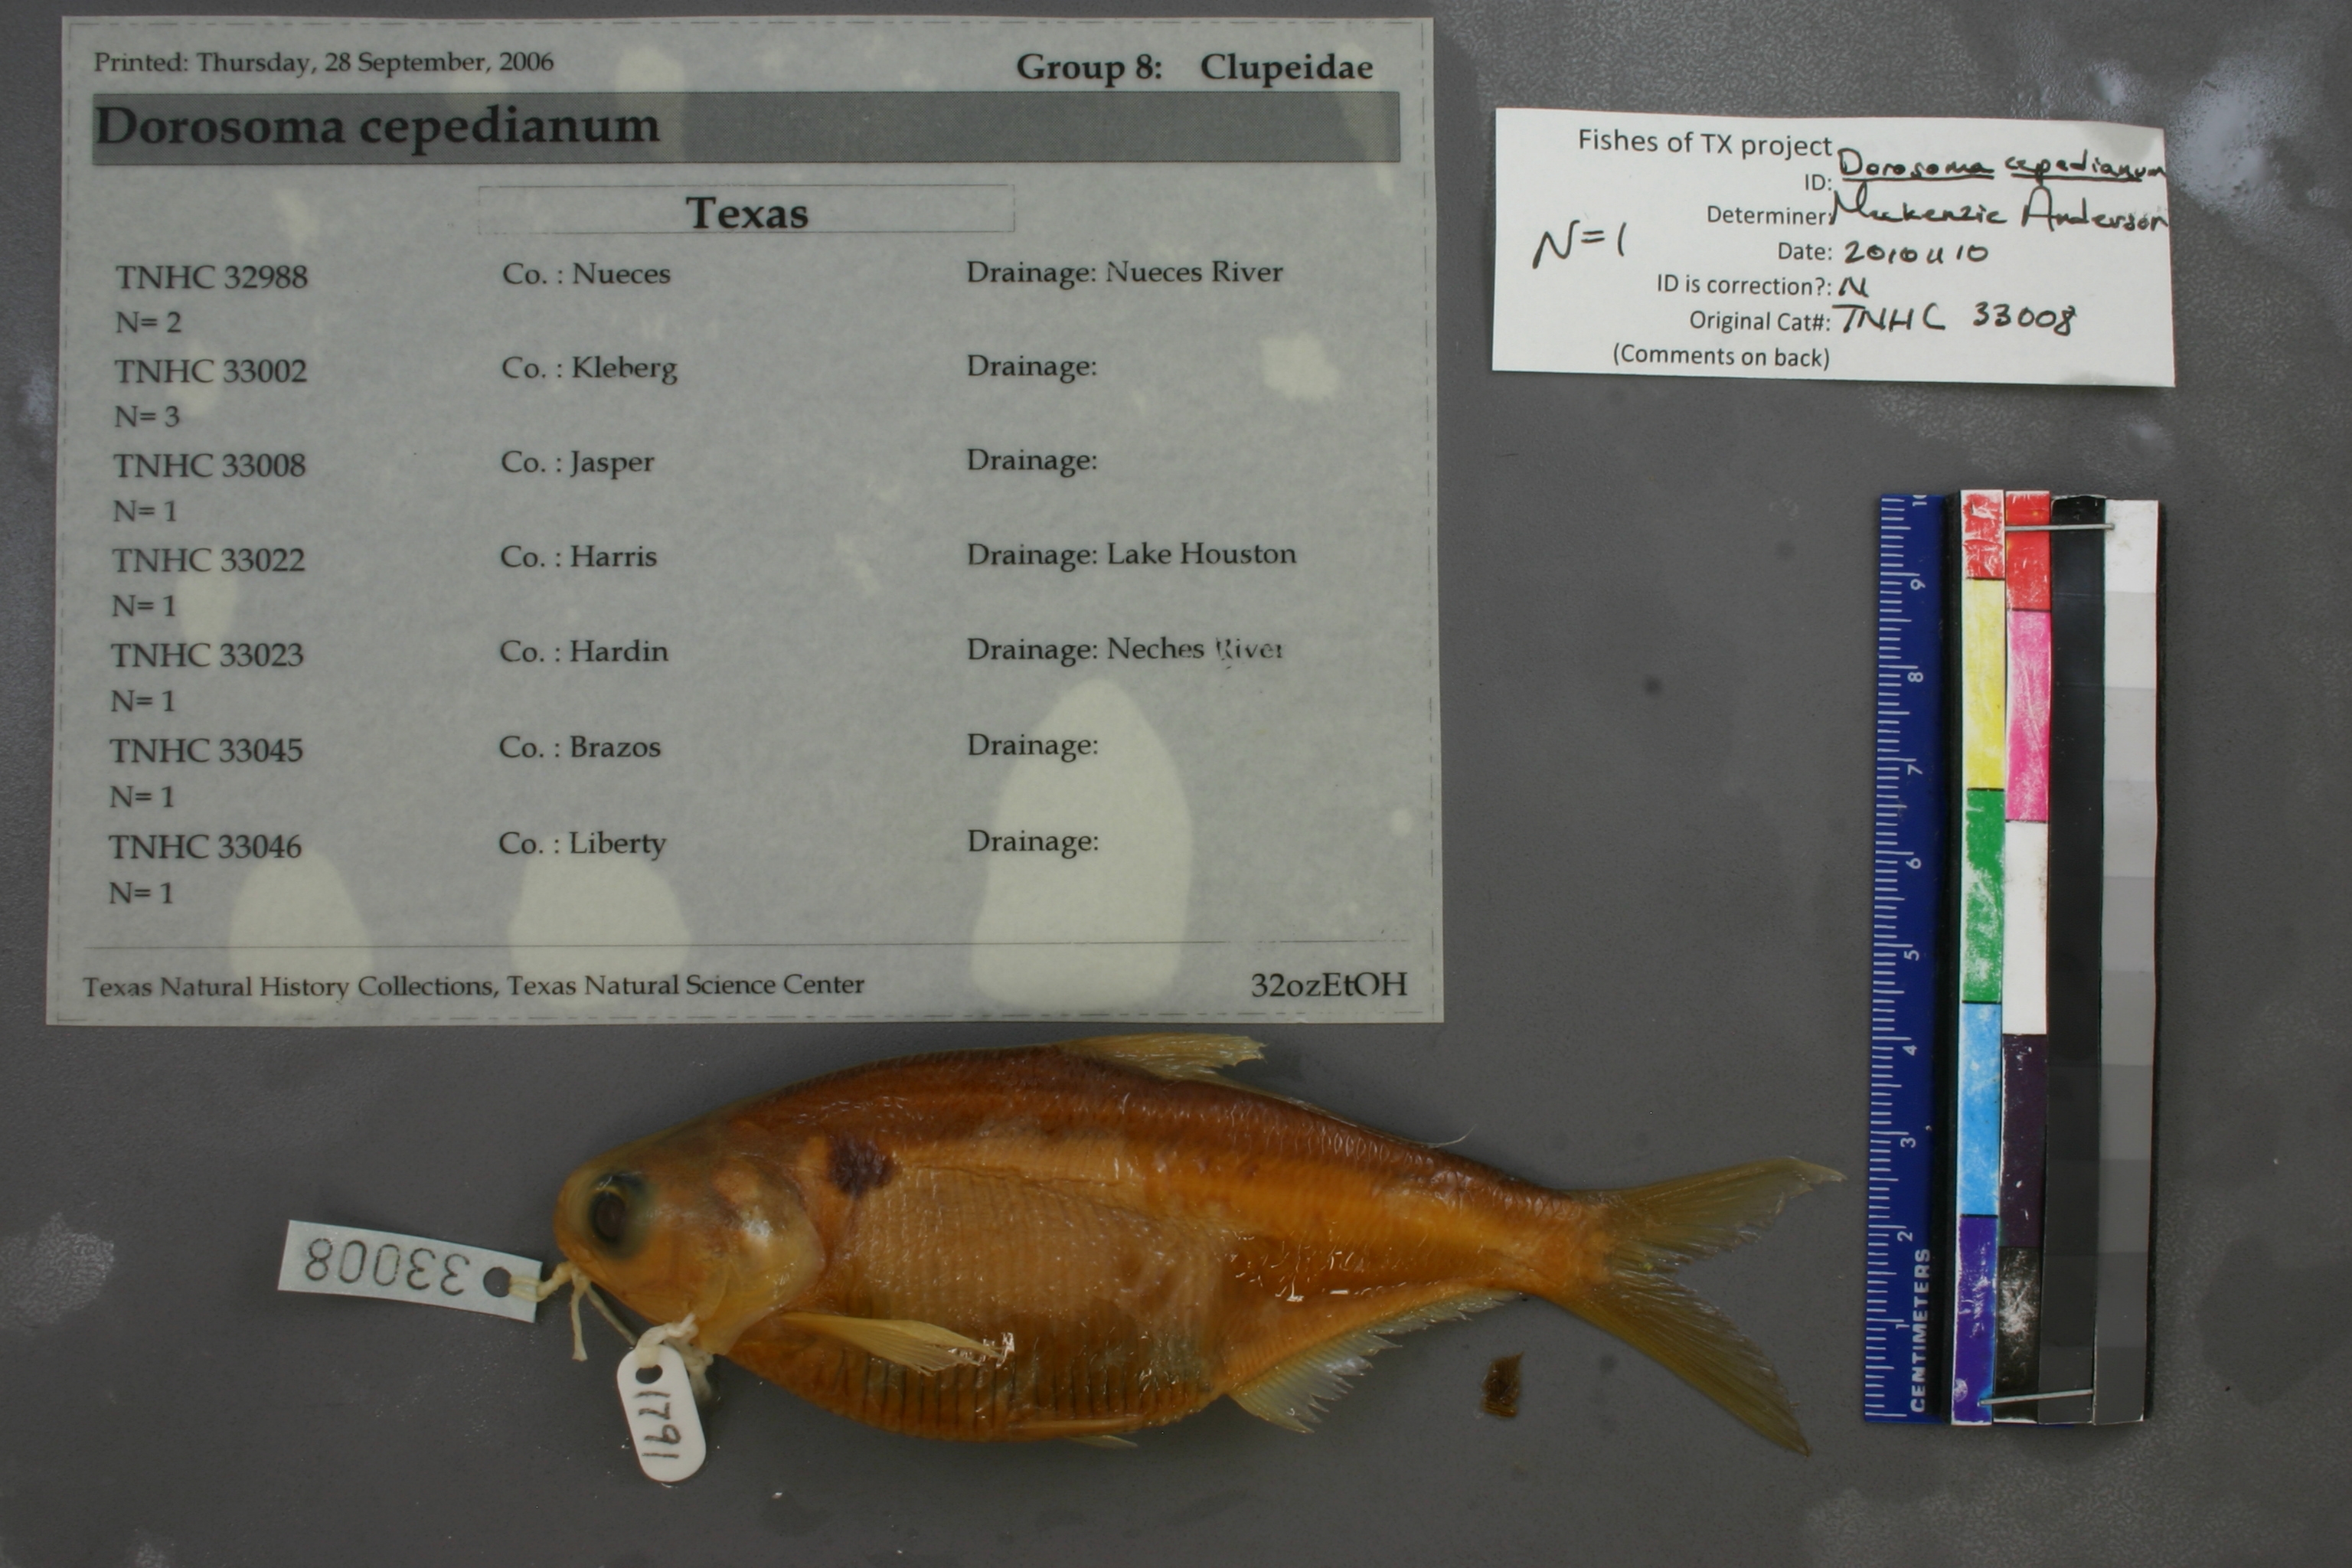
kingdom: Animalia
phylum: Chordata
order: Clupeiformes
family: Clupeidae
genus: Dorosoma
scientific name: Dorosoma cepedianum
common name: Gizzard shad
